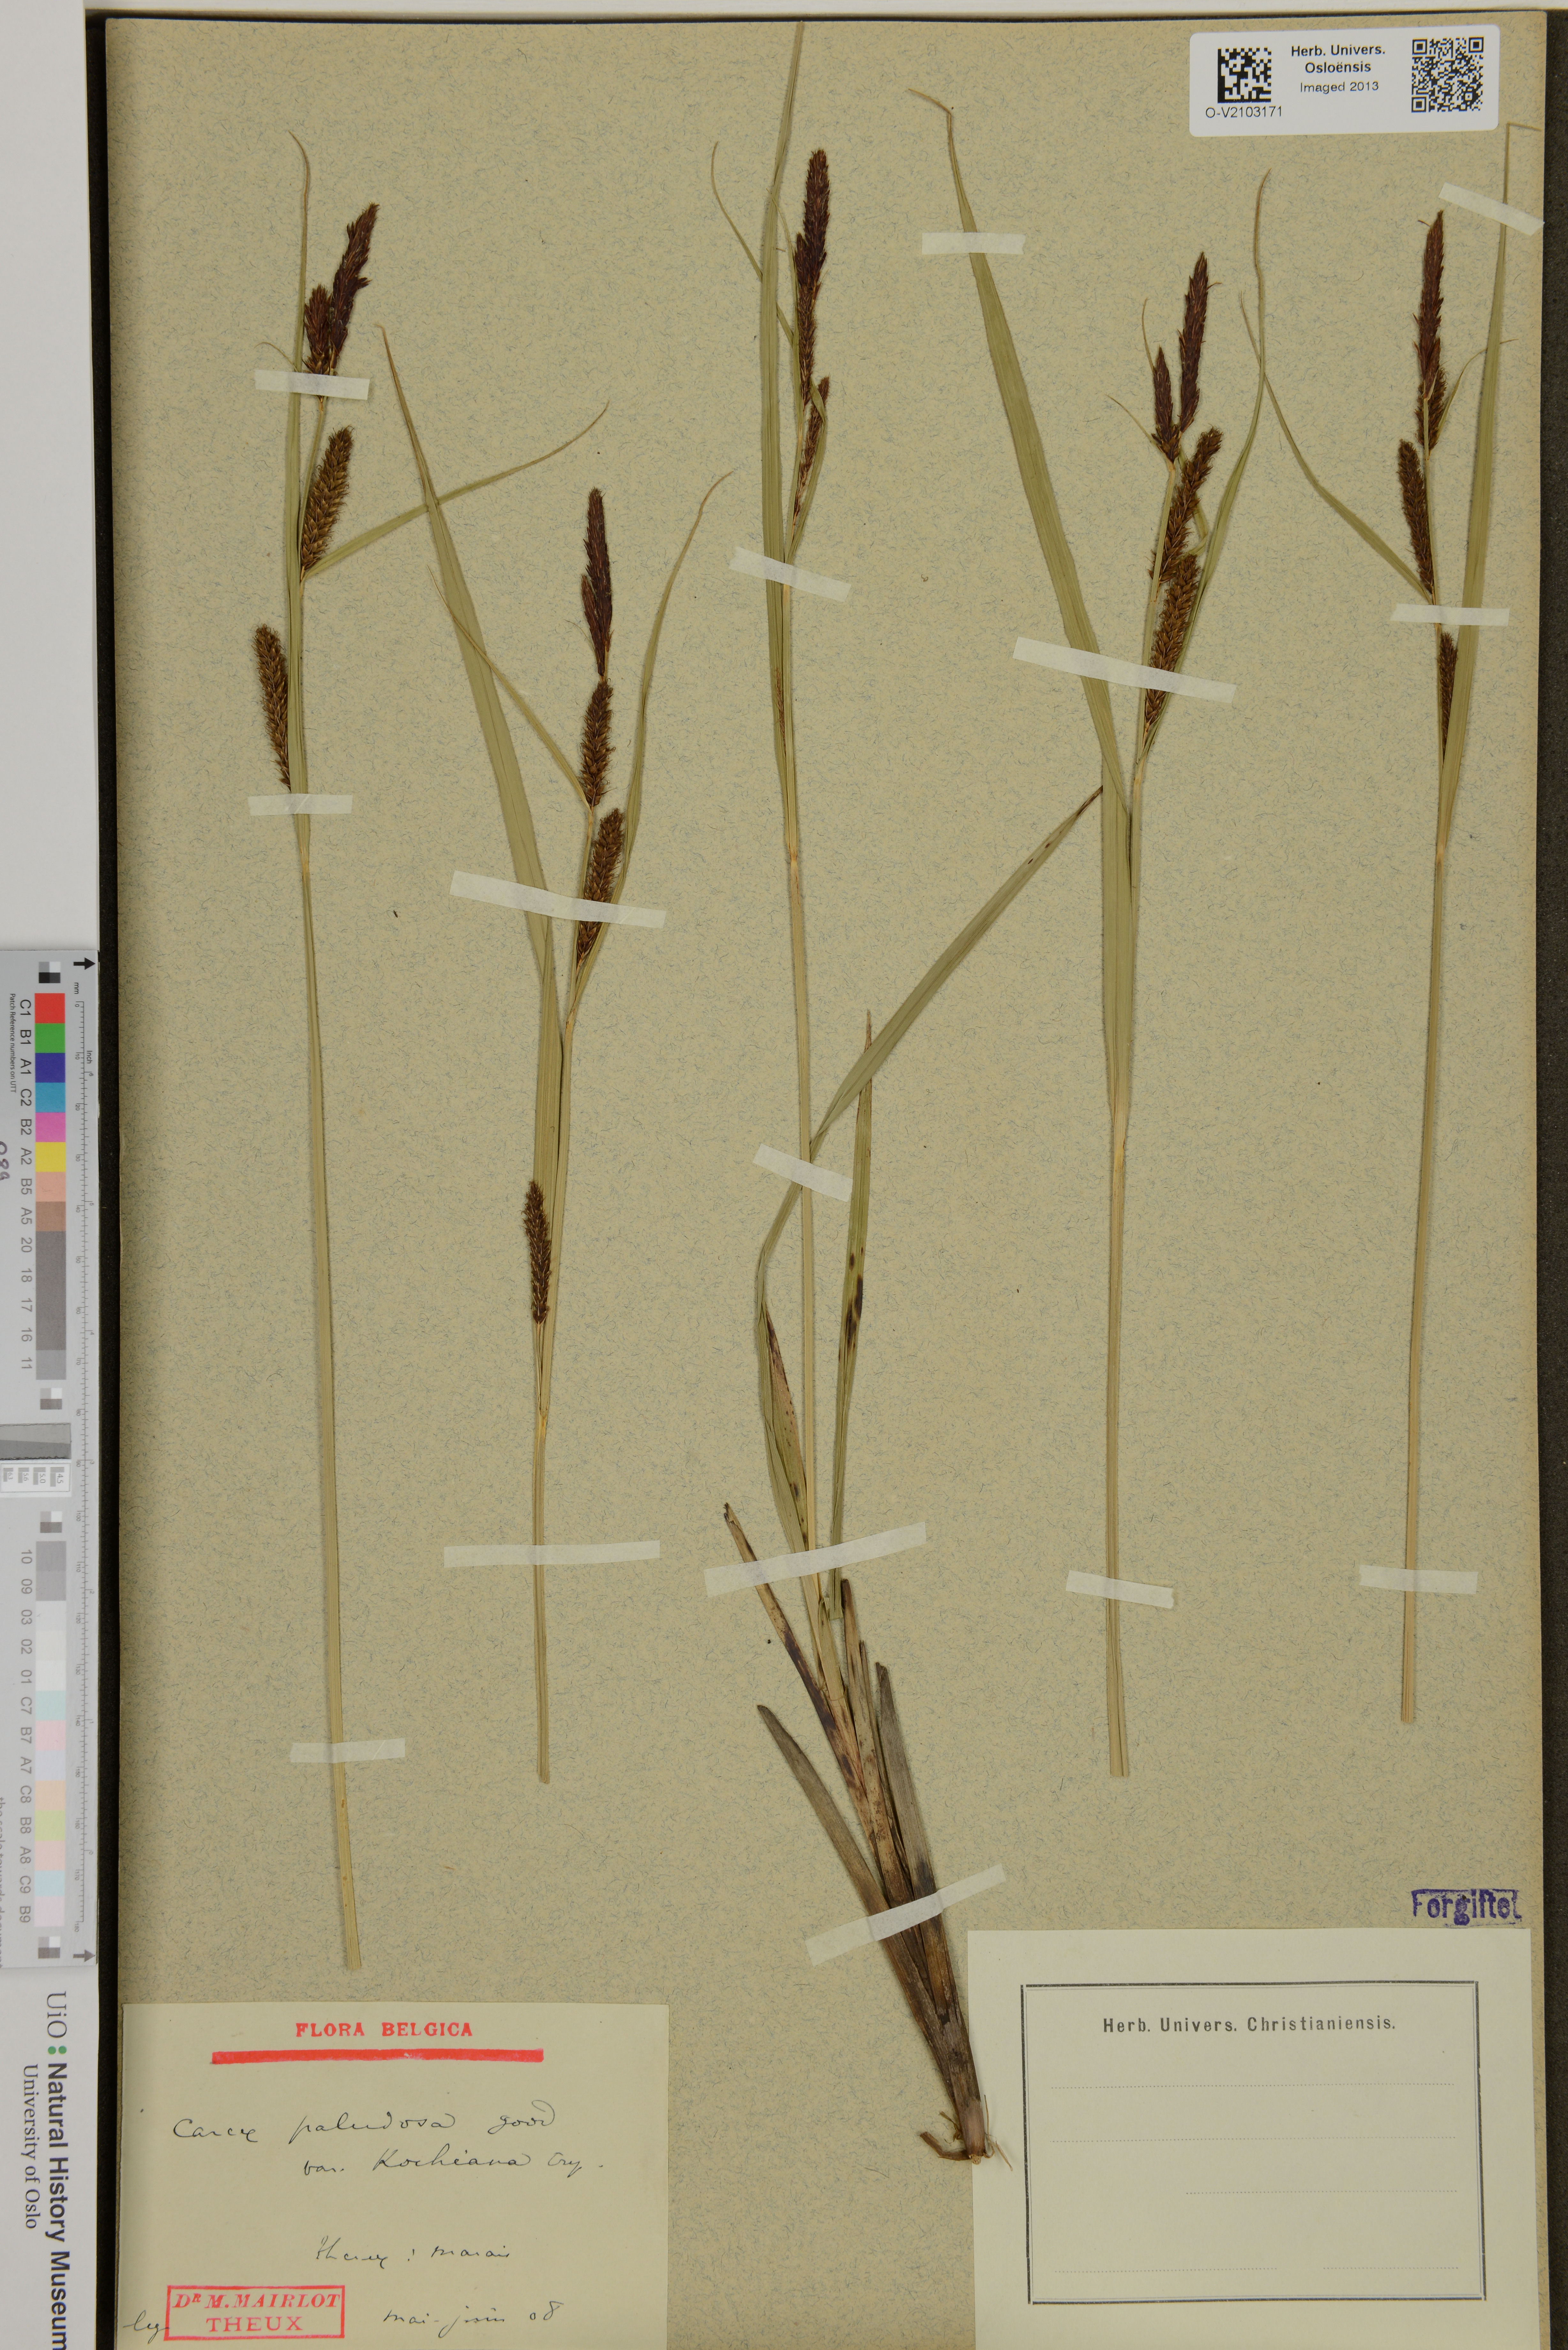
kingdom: Plantae
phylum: Tracheophyta
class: Liliopsida
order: Poales
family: Cyperaceae
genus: Carex
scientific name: Carex acutiformis
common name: Lesser pond-sedge
